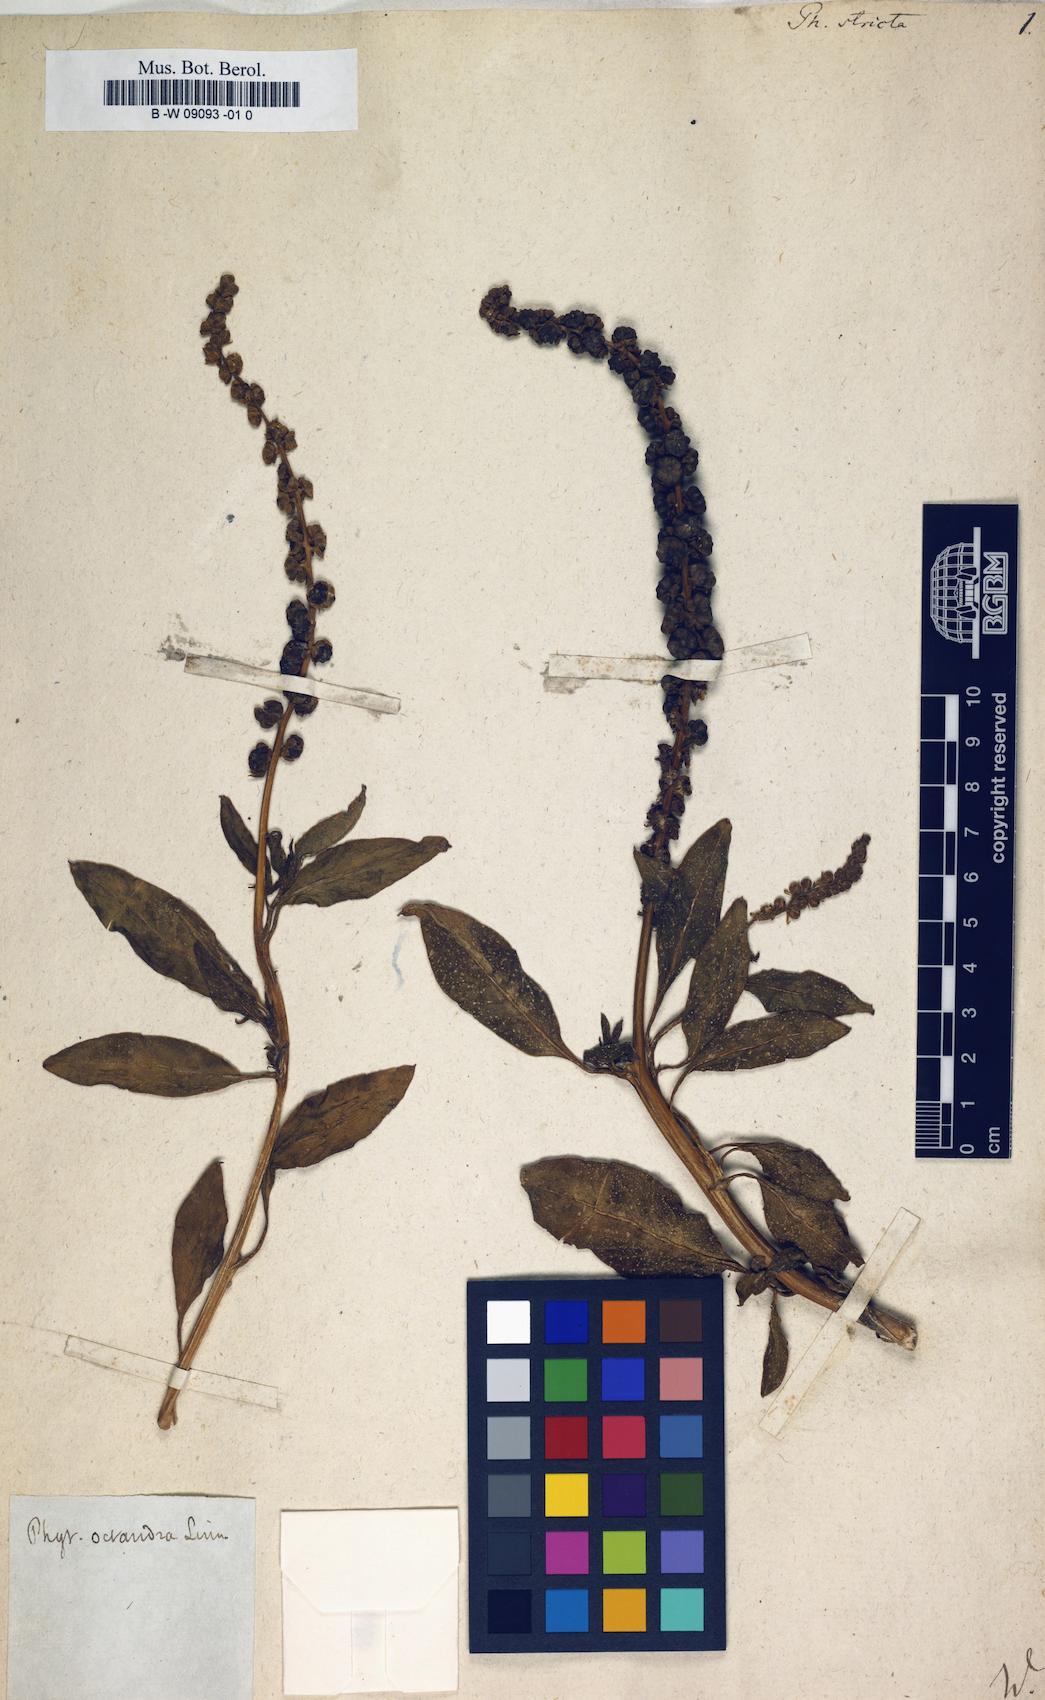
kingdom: Plantae
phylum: Tracheophyta
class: Magnoliopsida
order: Caryophyllales
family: Phytolaccaceae
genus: Phytolacca
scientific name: Phytolacca heptandra
